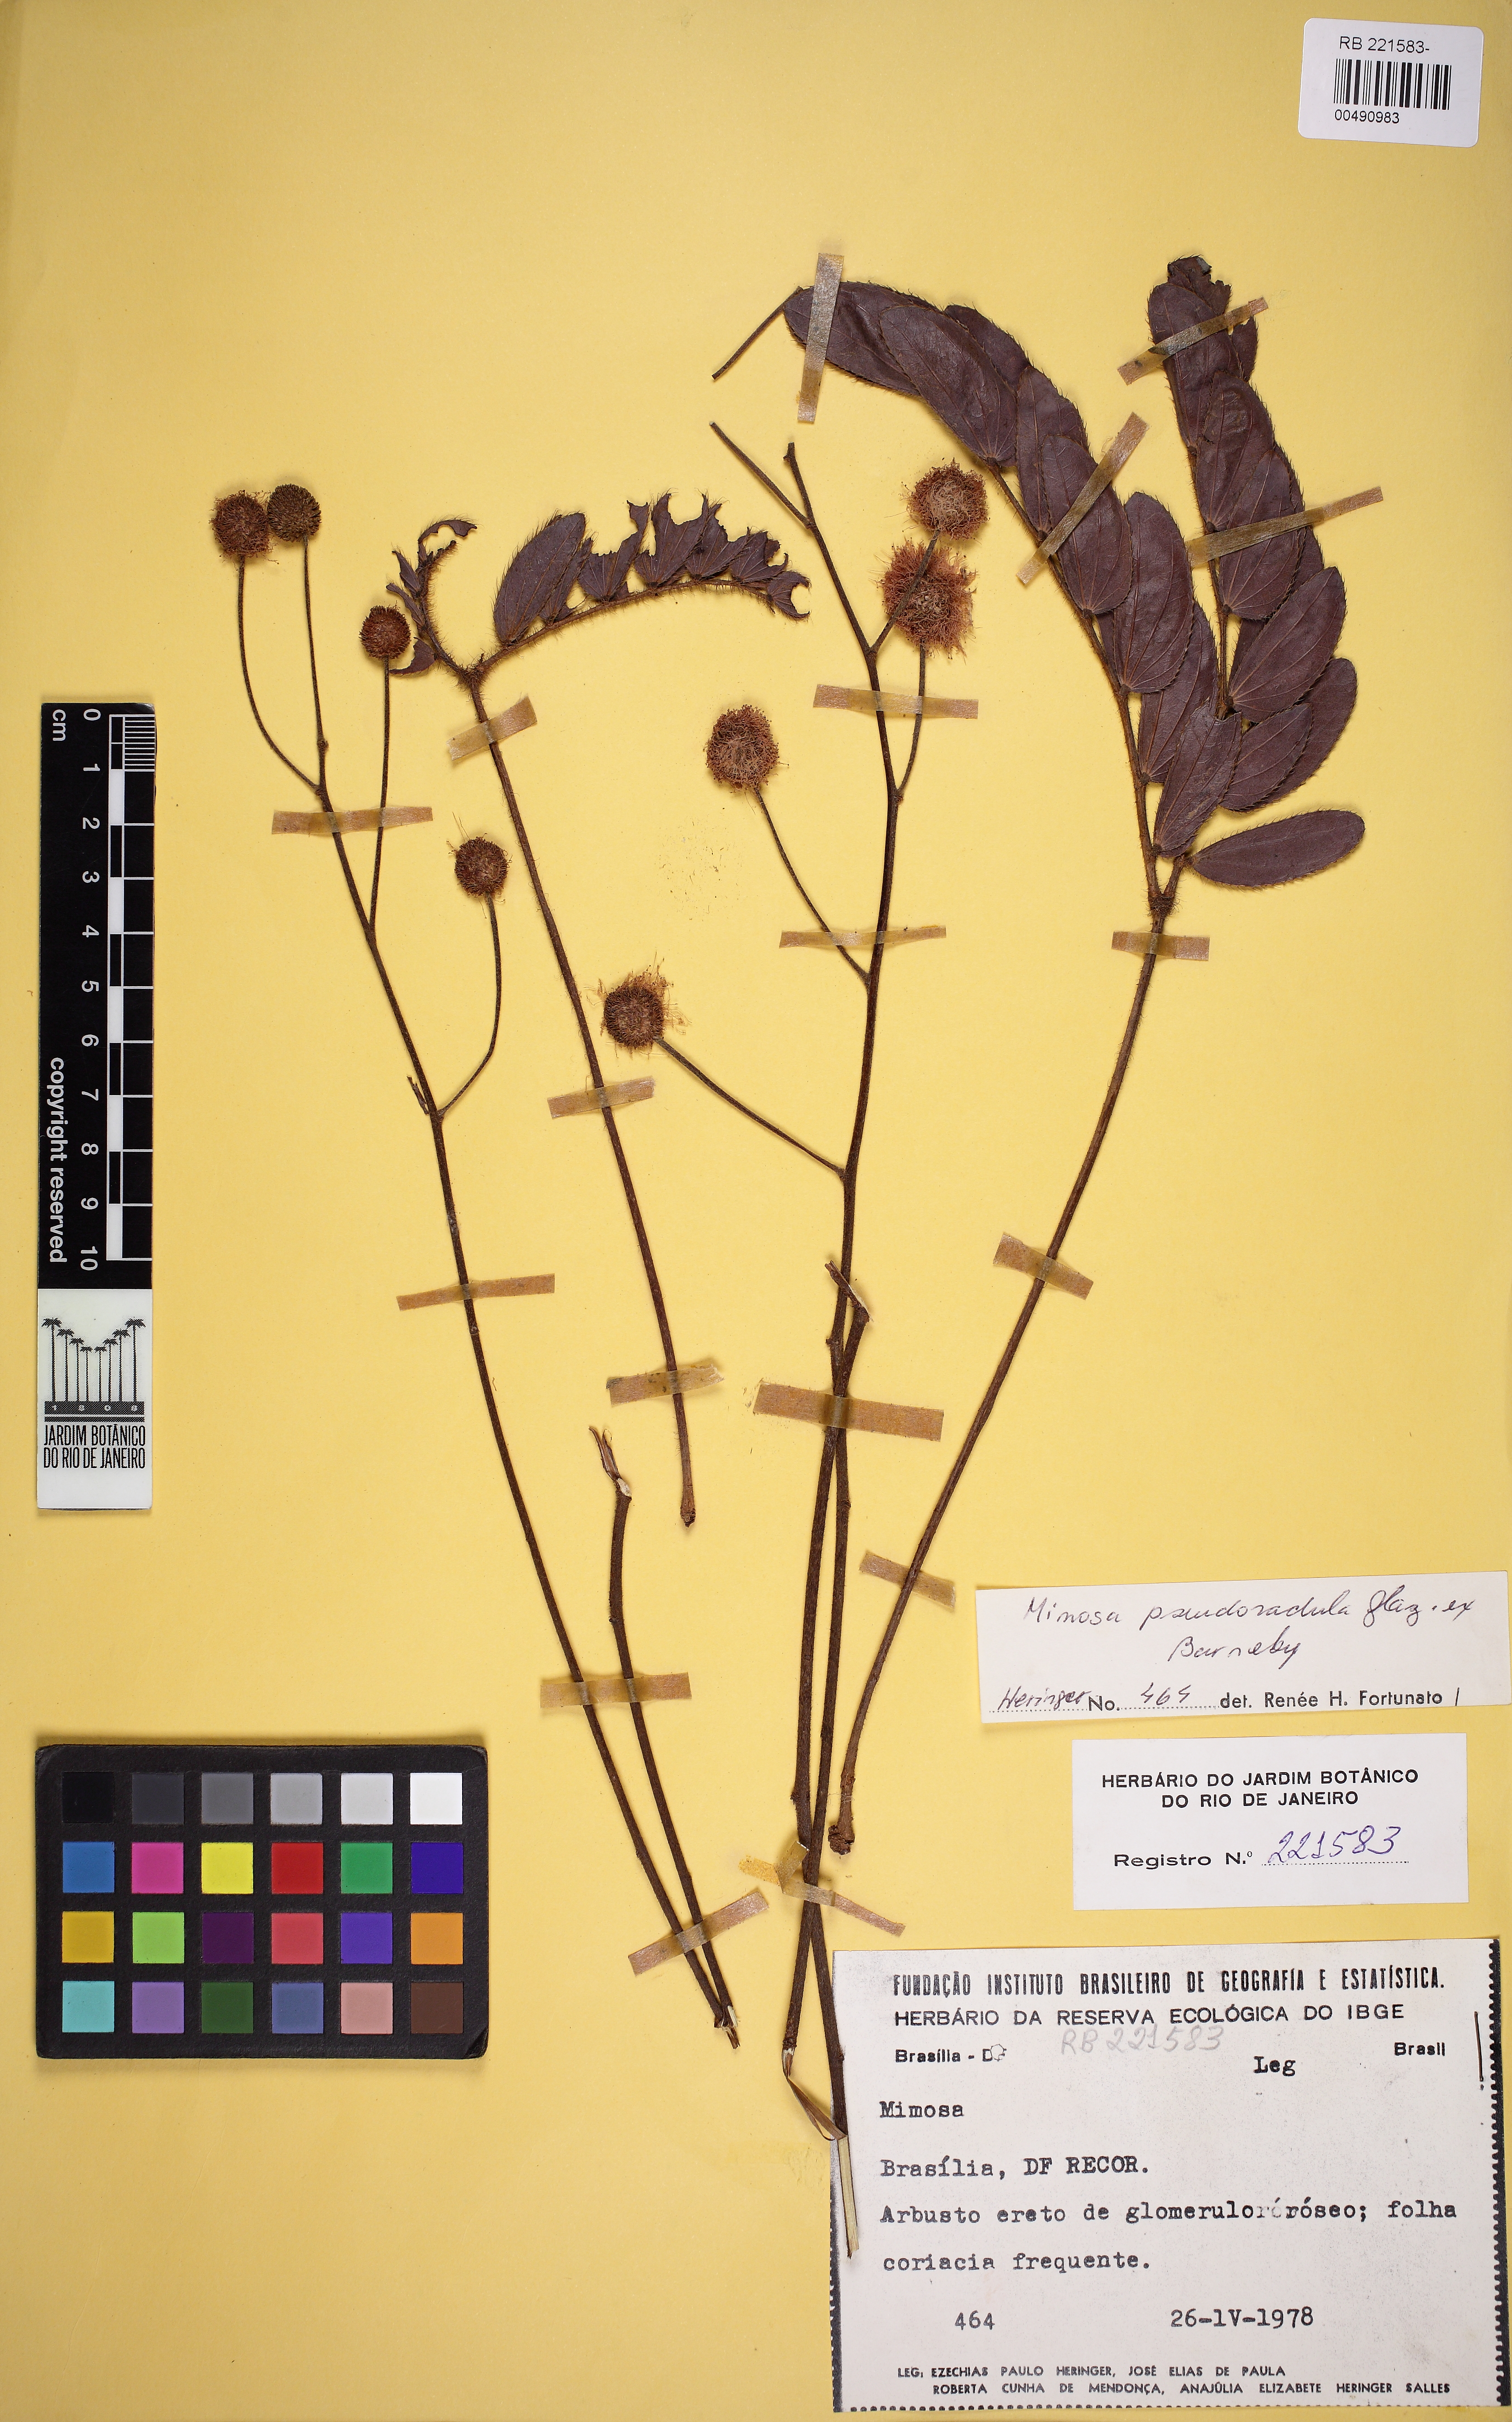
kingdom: Plantae
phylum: Tracheophyta
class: Magnoliopsida
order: Fabales
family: Fabaceae
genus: Mimosa
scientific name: Mimosa pseudoradula
